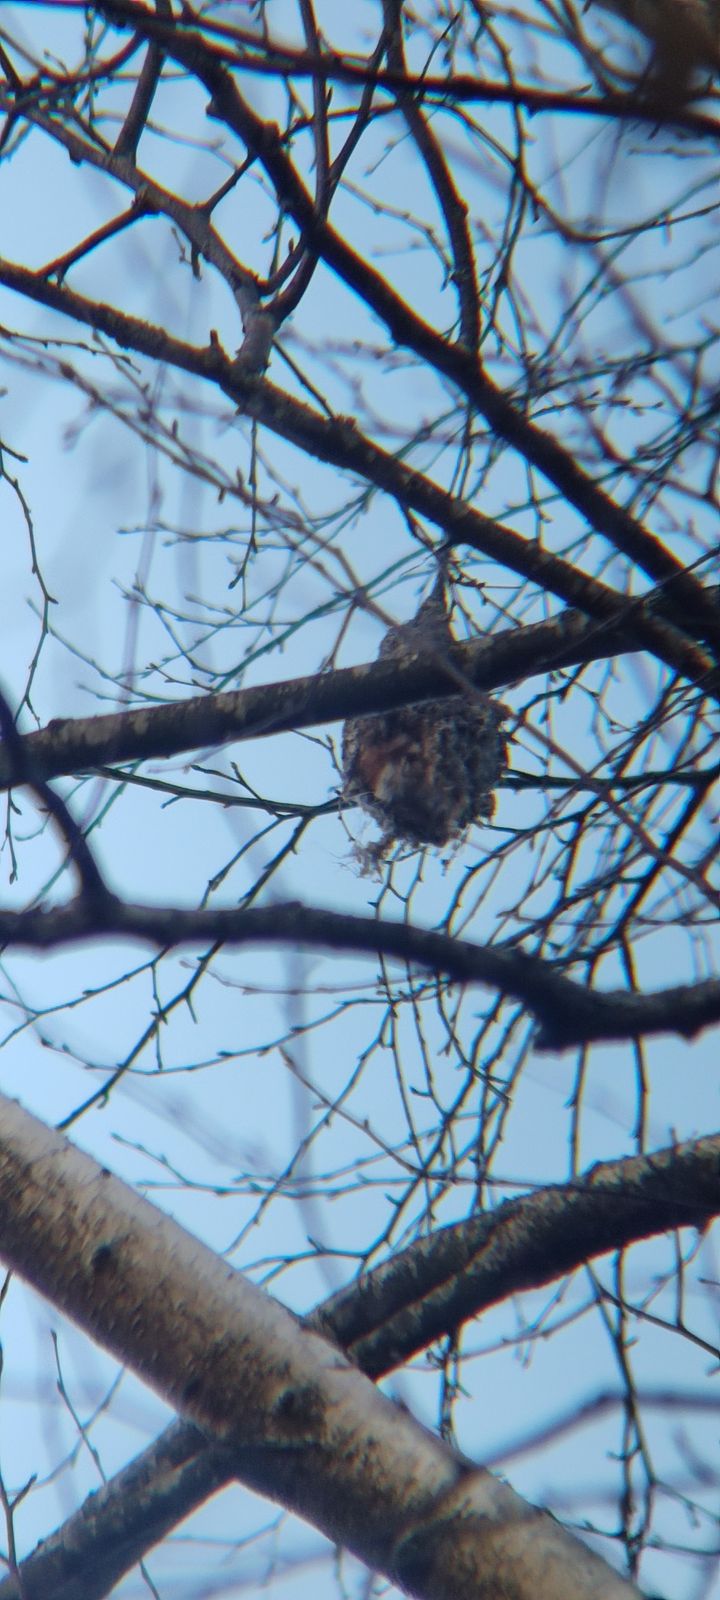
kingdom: Animalia
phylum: Chordata
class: Aves
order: Passeriformes
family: Remizidae
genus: Remiz
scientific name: Remiz pendulinus
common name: Eurasian penduline tit
